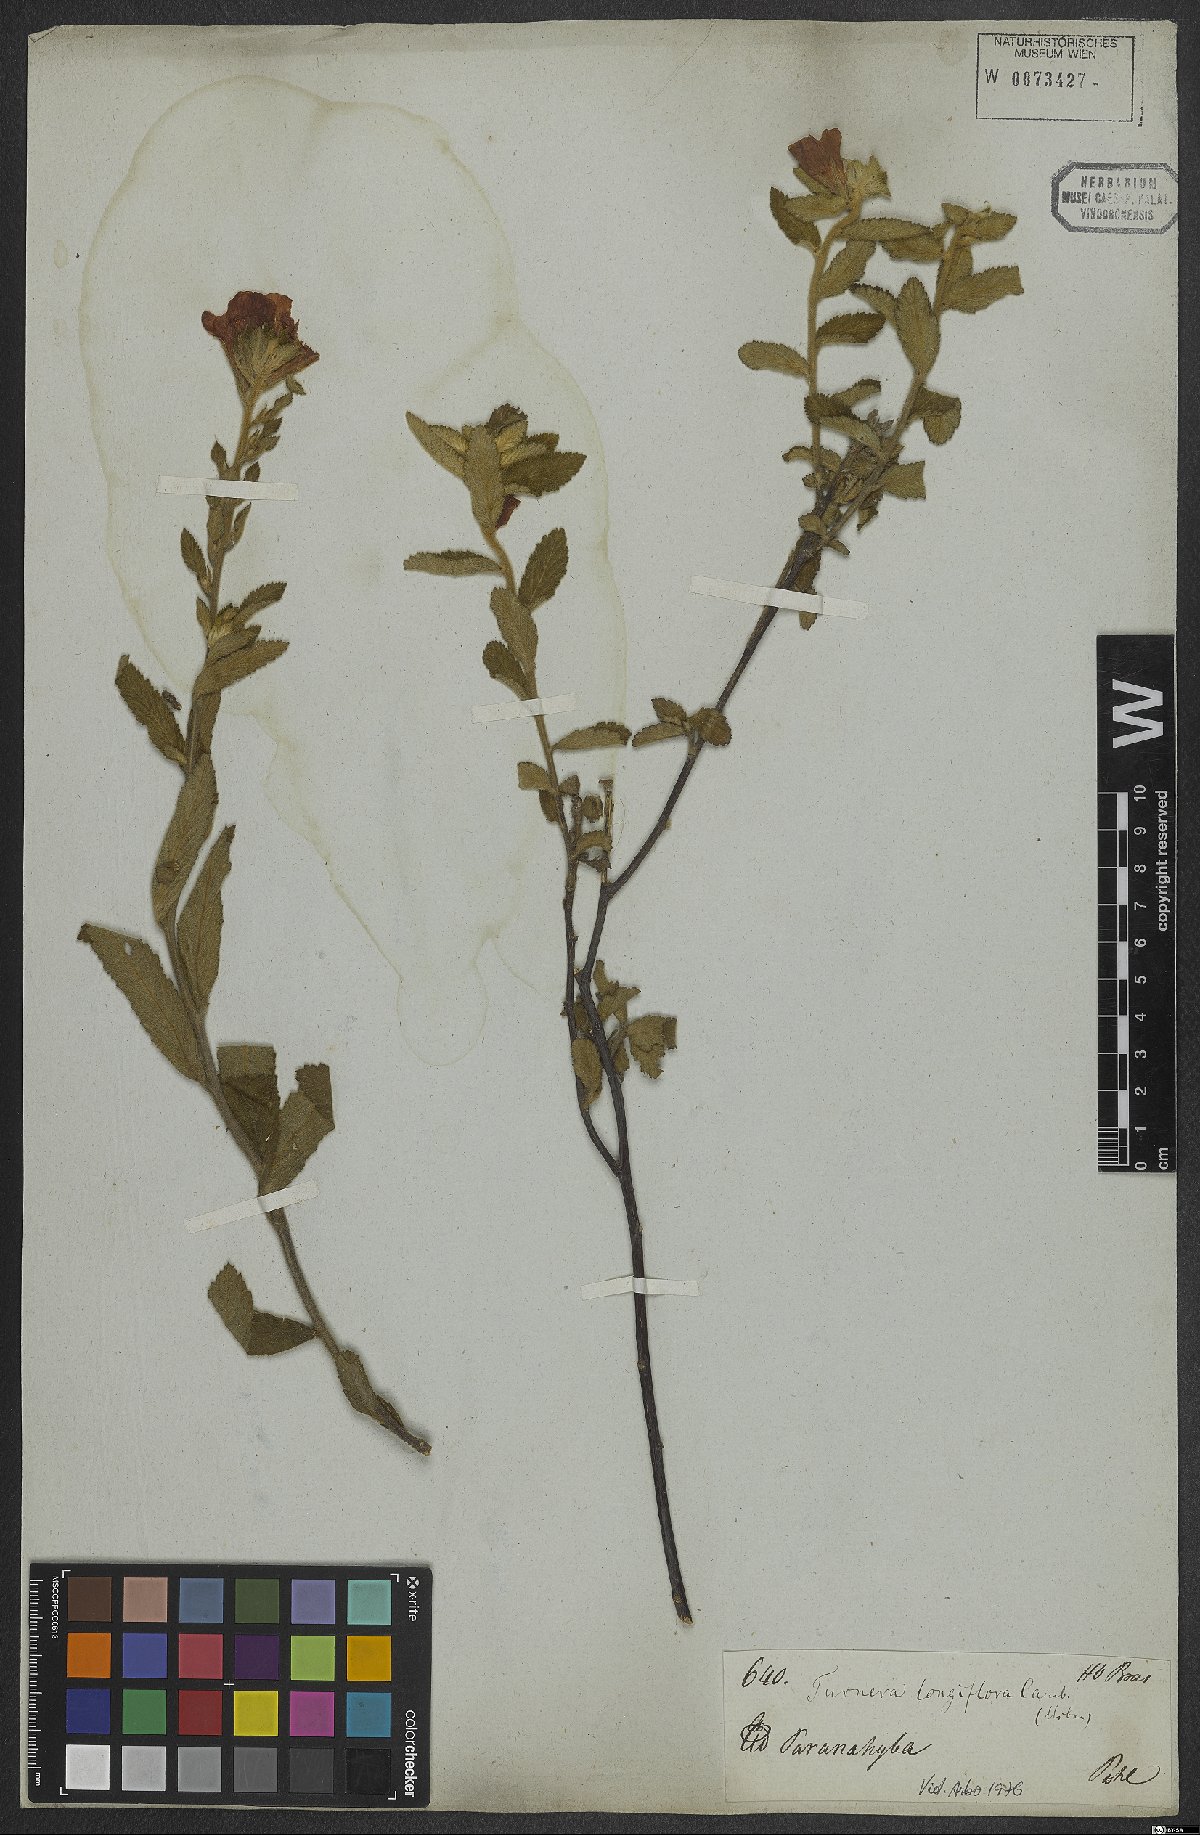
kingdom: Plantae
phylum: Tracheophyta
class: Magnoliopsida
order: Malpighiales
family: Turneraceae
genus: Turnera
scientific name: Turnera longiflora
